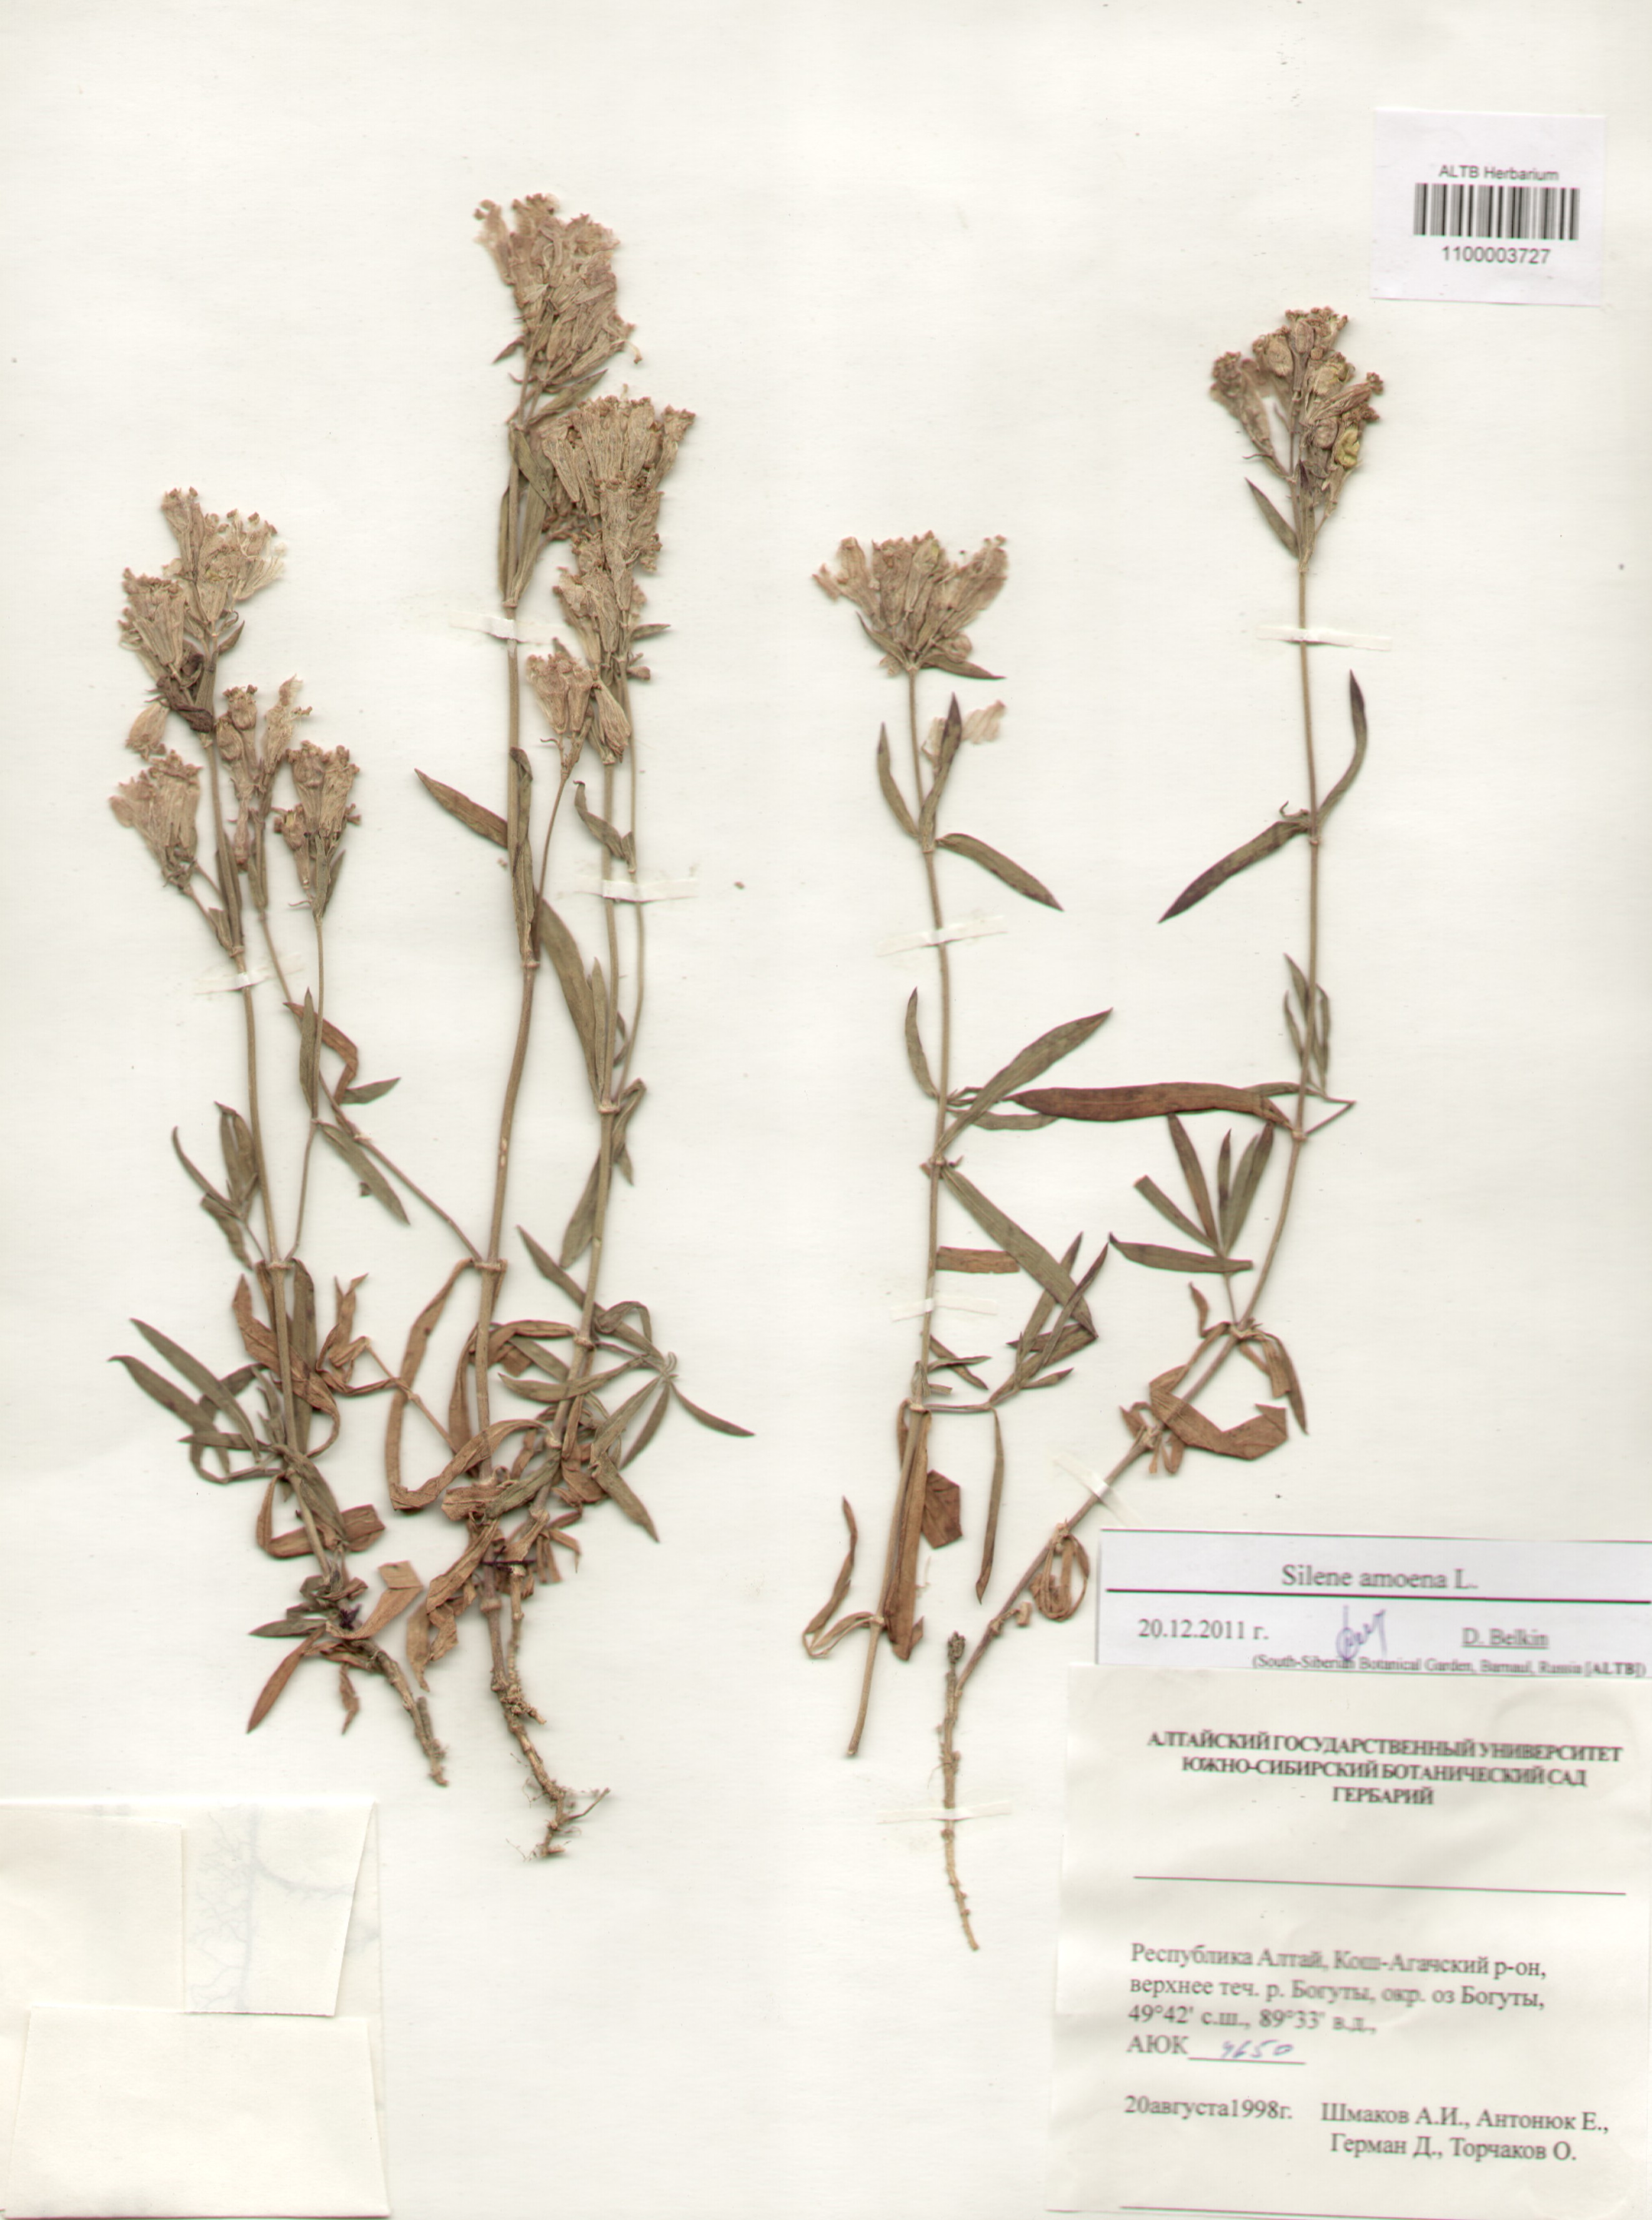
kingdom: Plantae
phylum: Tracheophyta
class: Magnoliopsida
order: Caryophyllales
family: Caryophyllaceae
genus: Silene
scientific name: Silene amoena
